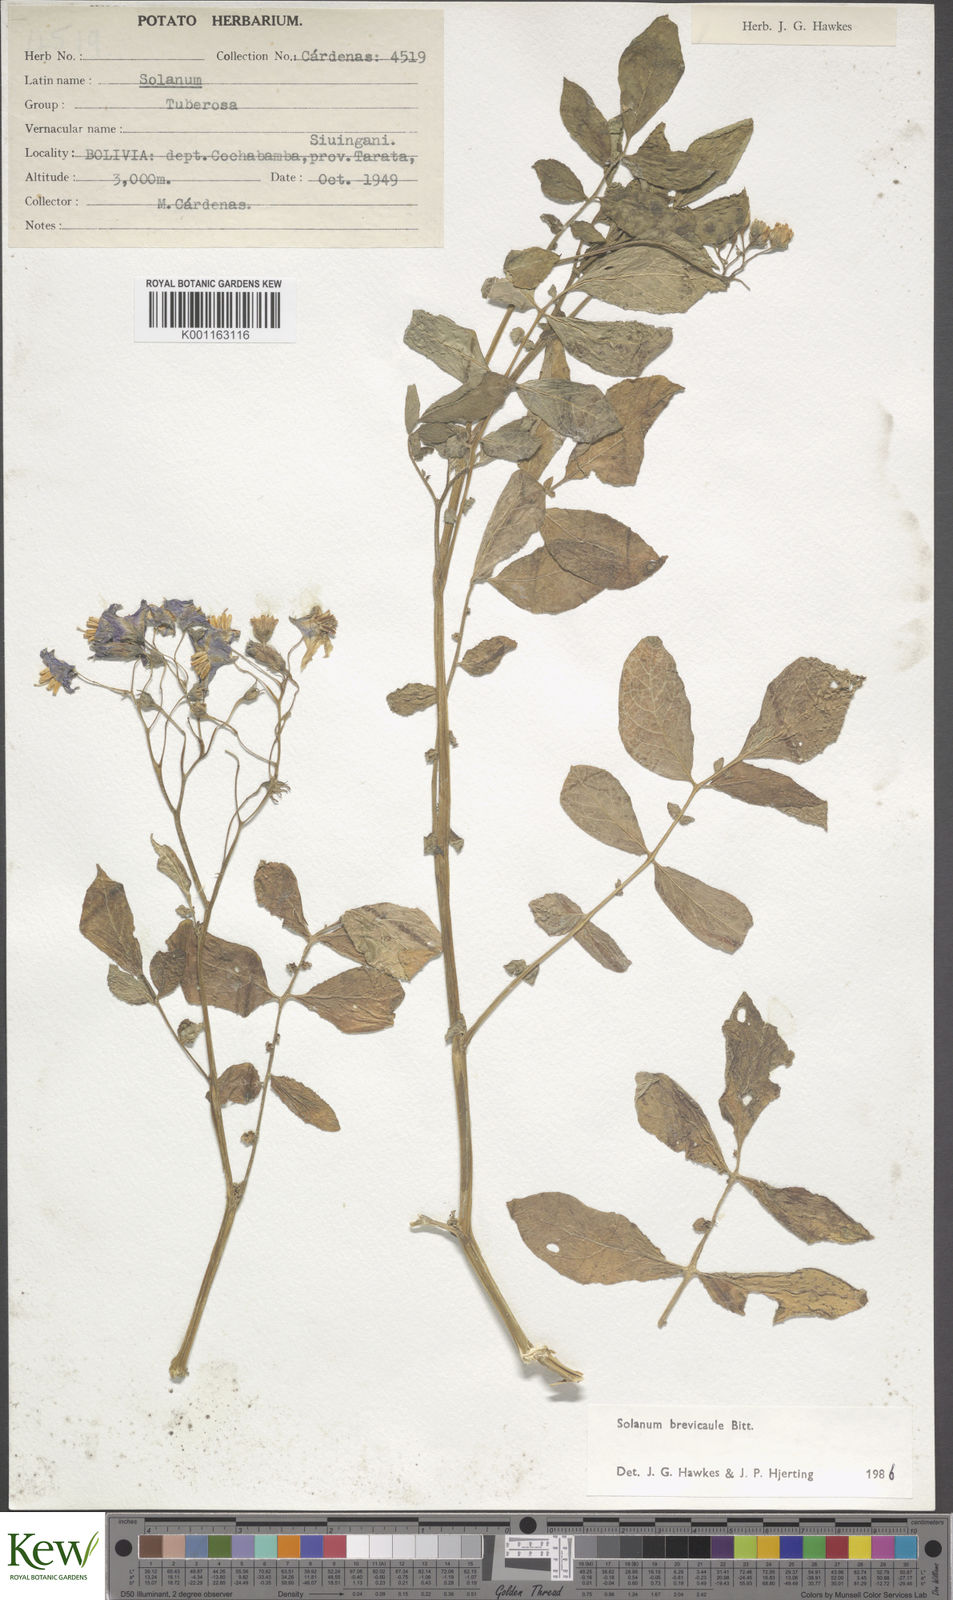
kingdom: Plantae
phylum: Tracheophyta
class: Magnoliopsida
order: Solanales
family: Solanaceae
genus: Solanum
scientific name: Solanum brevicaule
